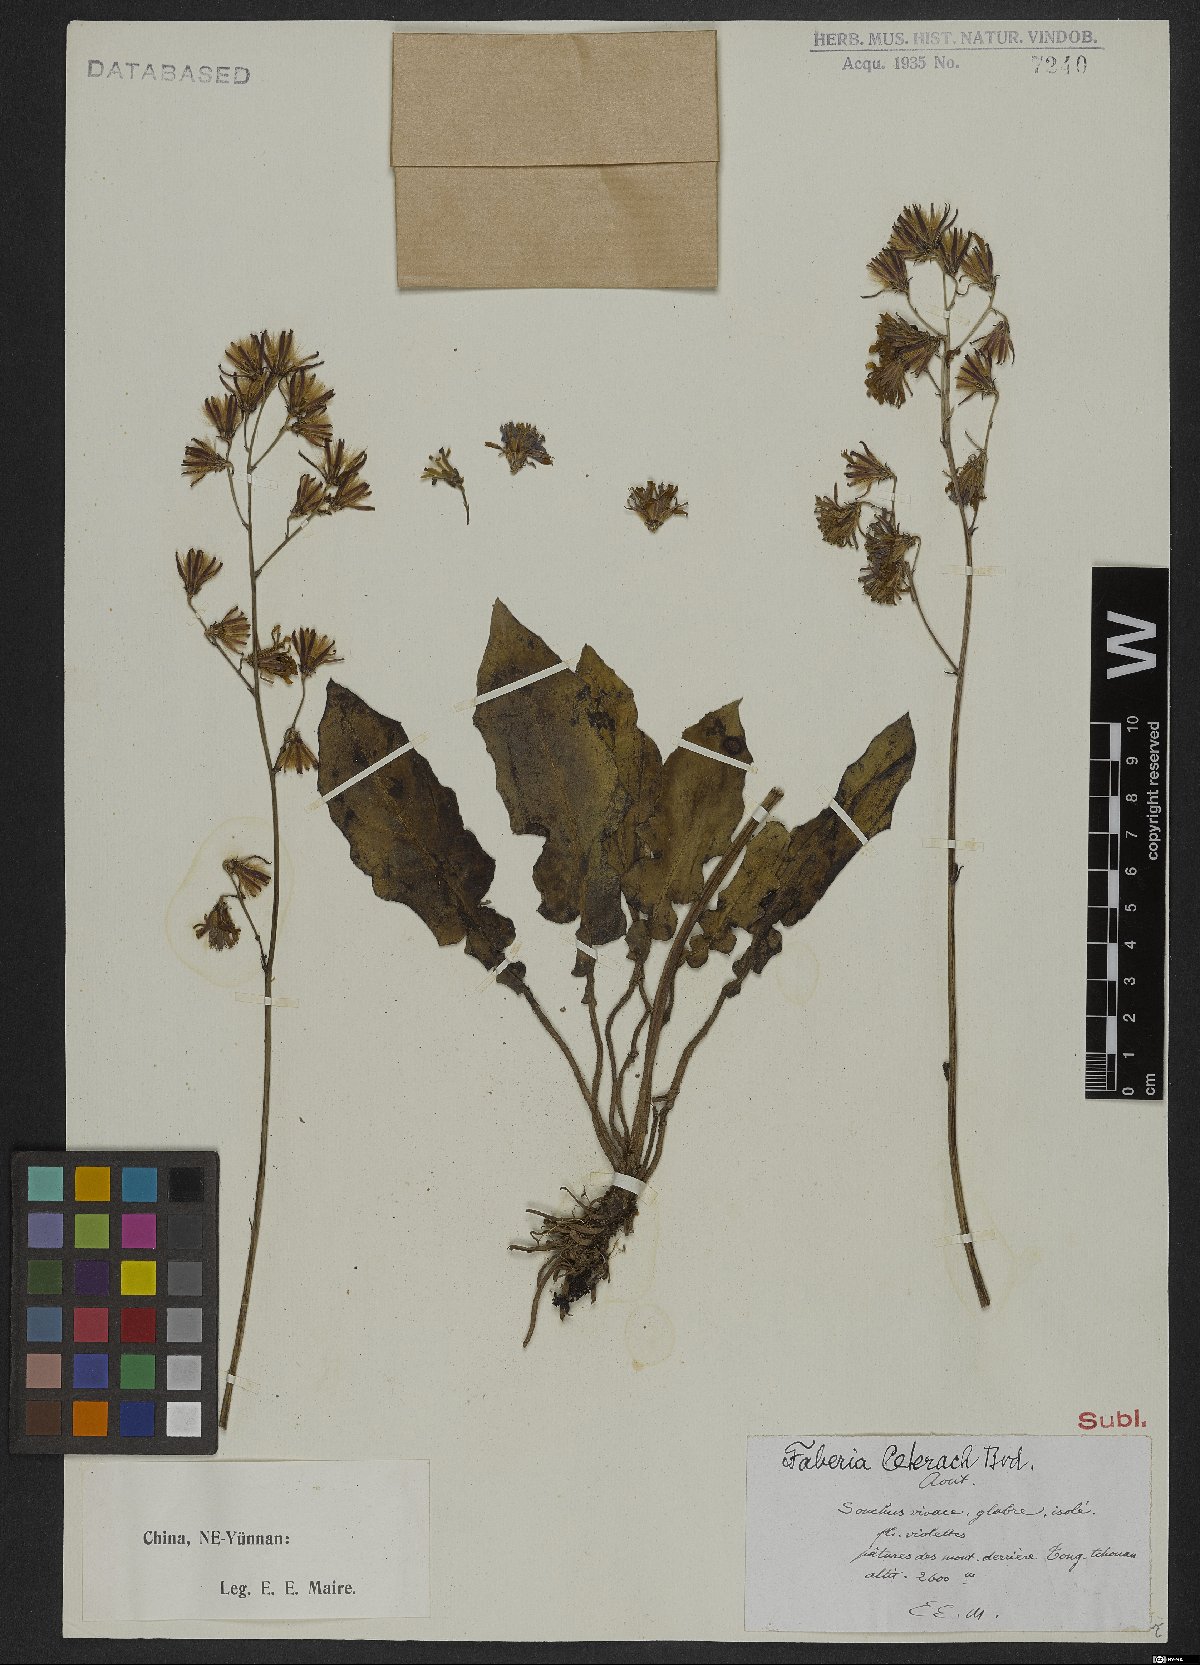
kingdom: Plantae
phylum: Tracheophyta
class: Magnoliopsida
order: Asterales
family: Asteraceae
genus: Faberia
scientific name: Faberia ceterach
